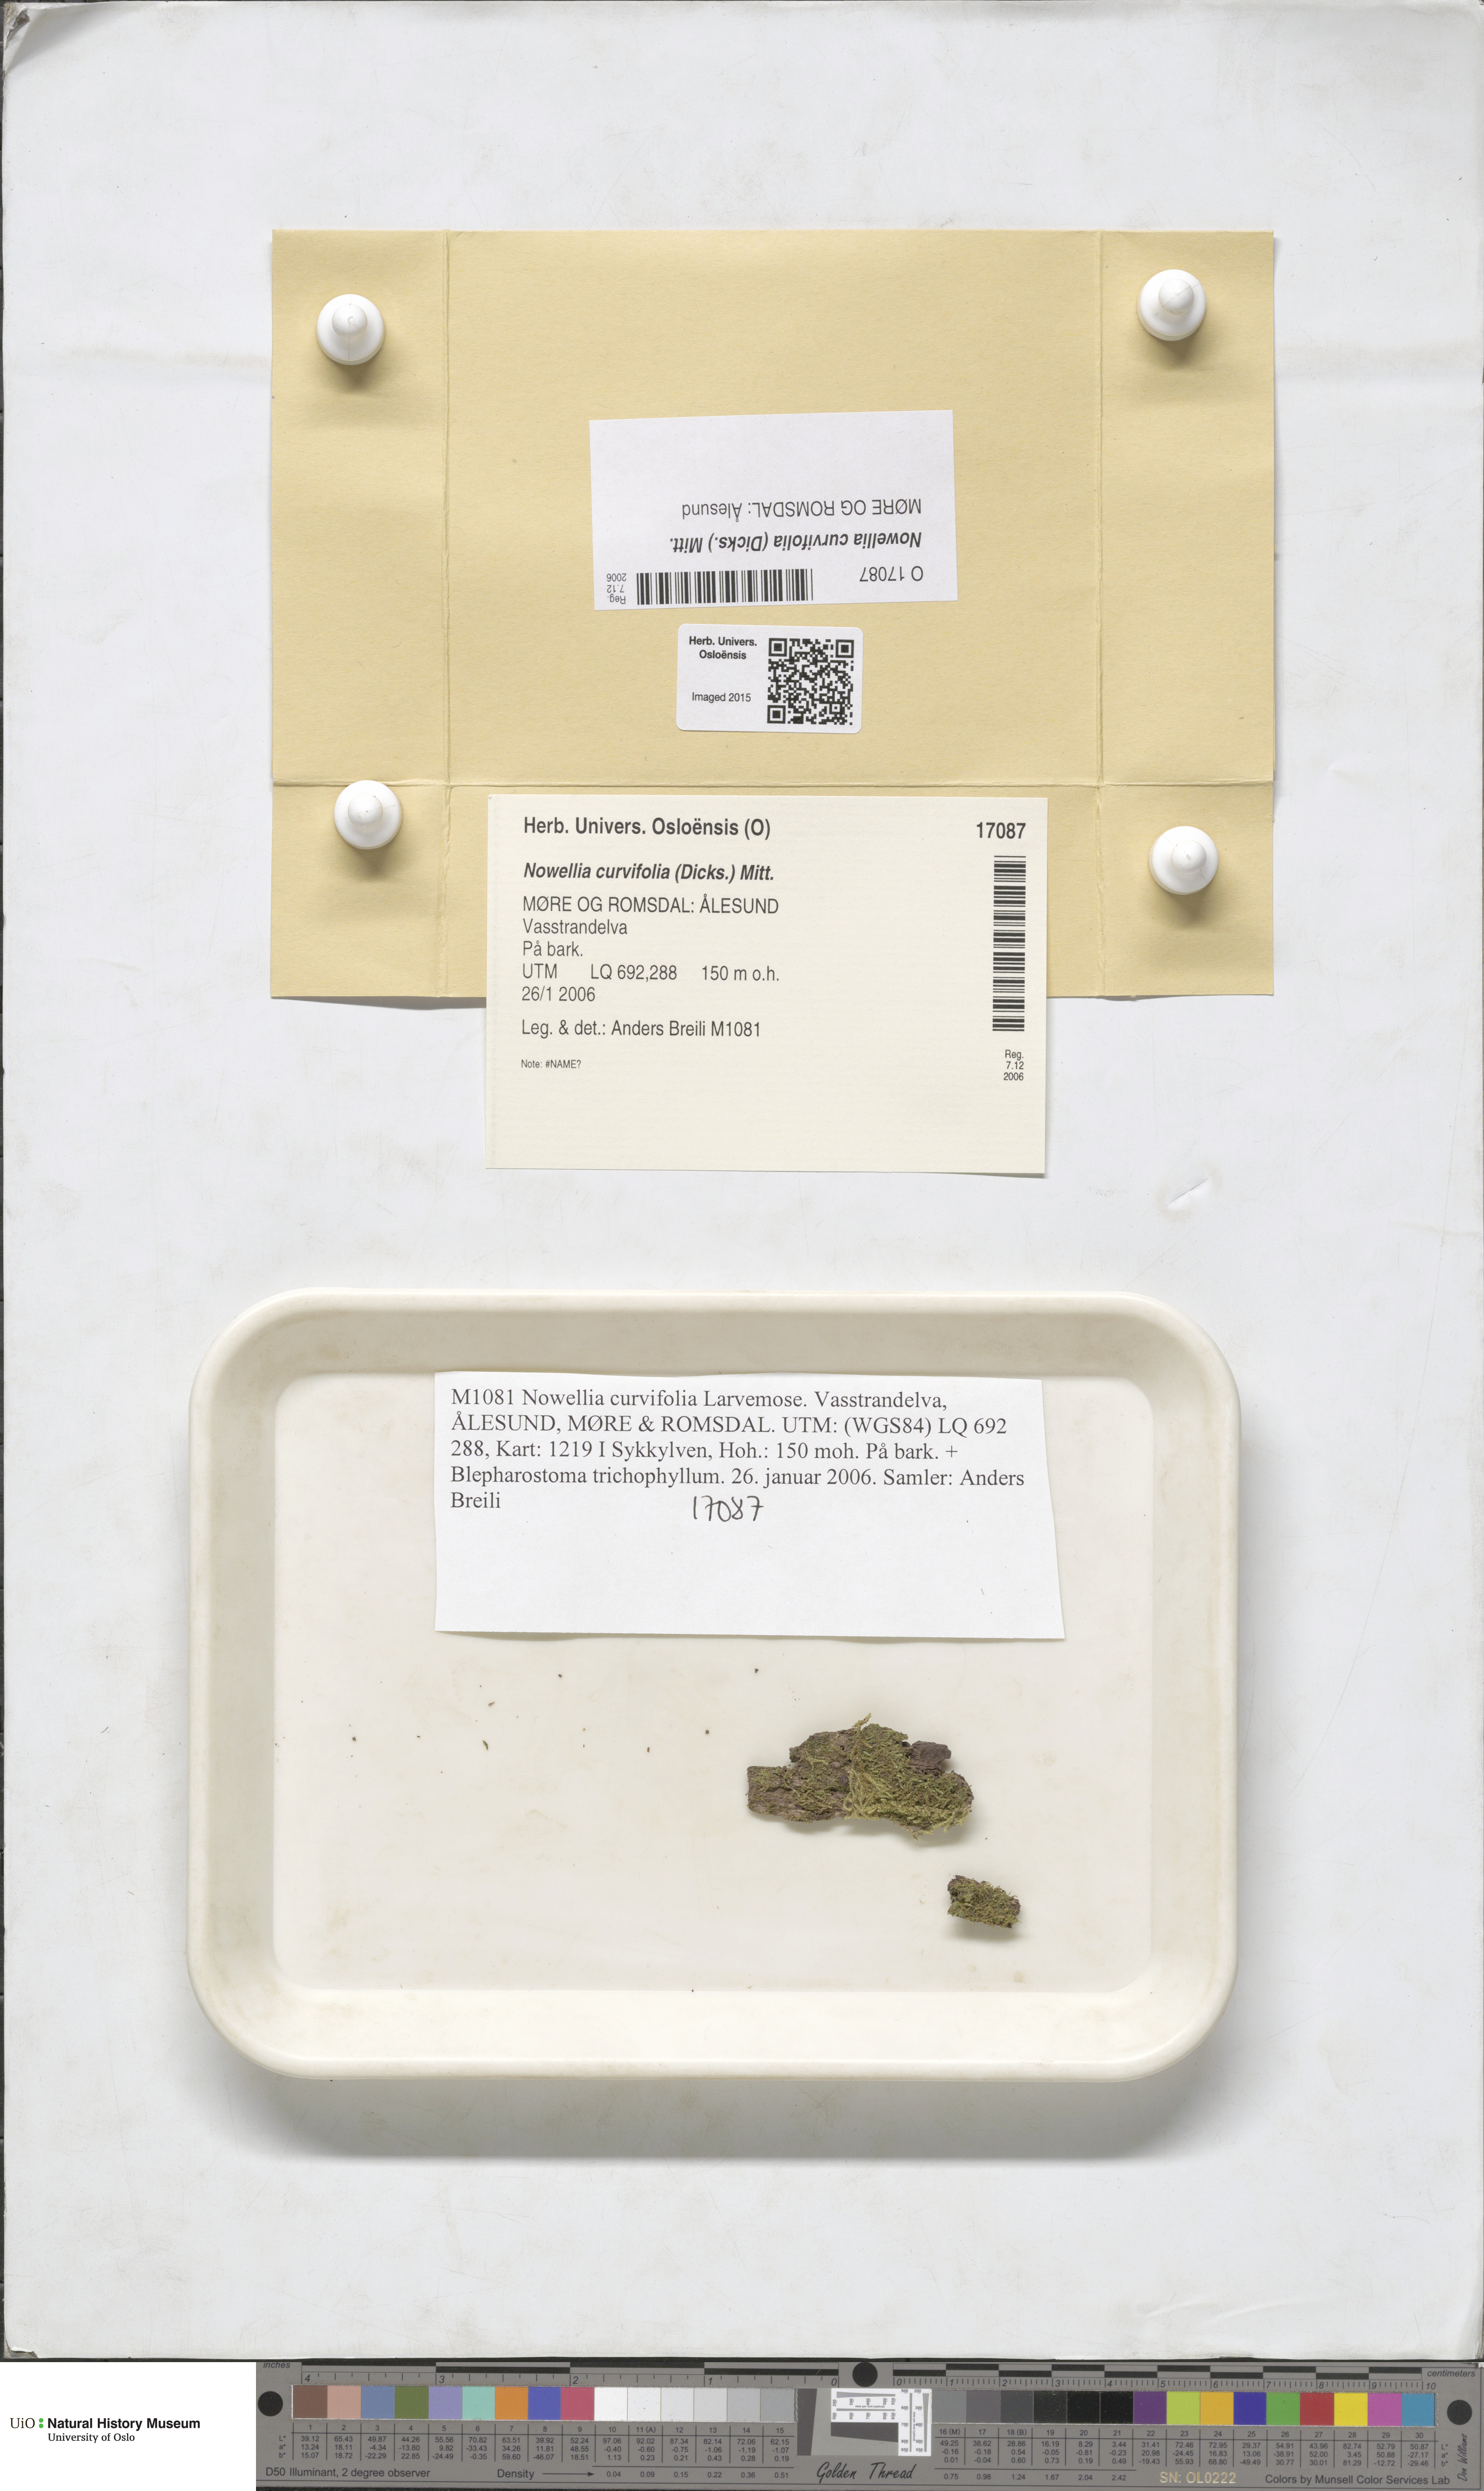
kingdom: Plantae
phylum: Marchantiophyta
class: Jungermanniopsida
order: Jungermanniales
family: Cephaloziaceae
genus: Nowellia
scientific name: Nowellia curvifolia
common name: Wood rustwort
